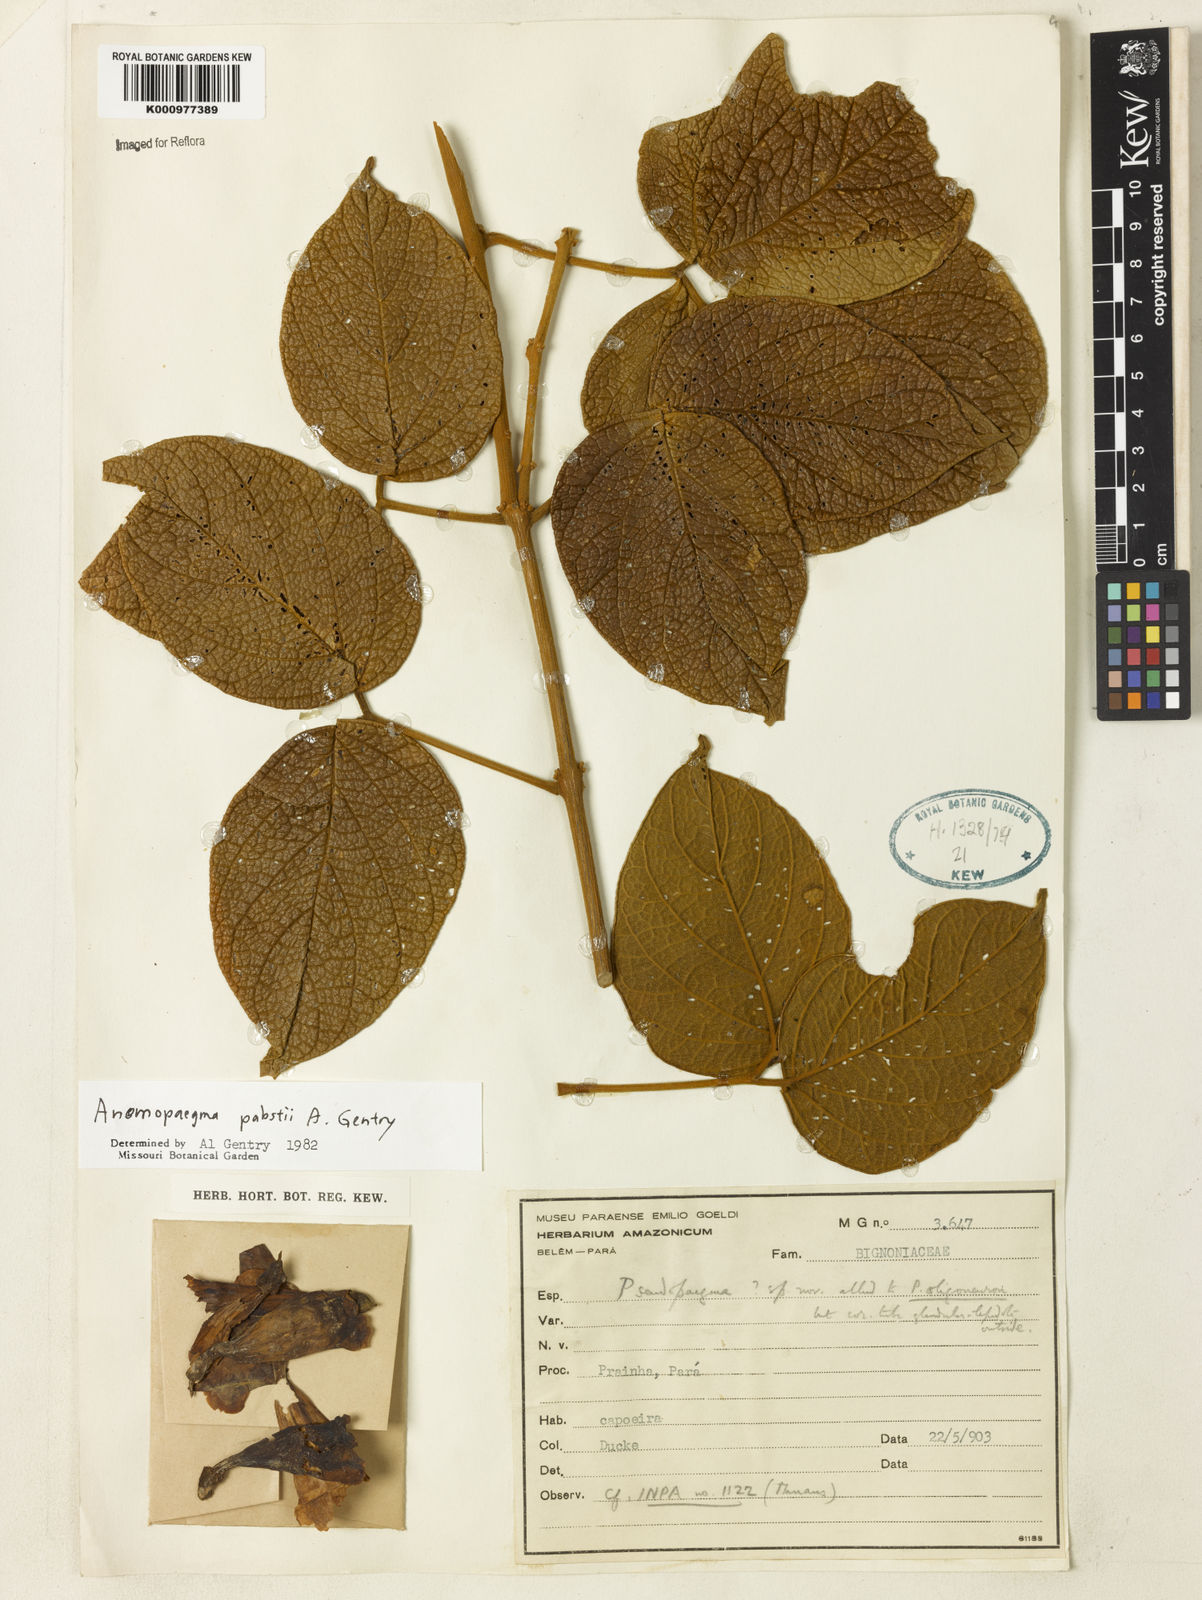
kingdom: Plantae
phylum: Tracheophyta
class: Magnoliopsida
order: Lamiales
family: Bignoniaceae
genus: Anemopaegma
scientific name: Anemopaegma pabstii
